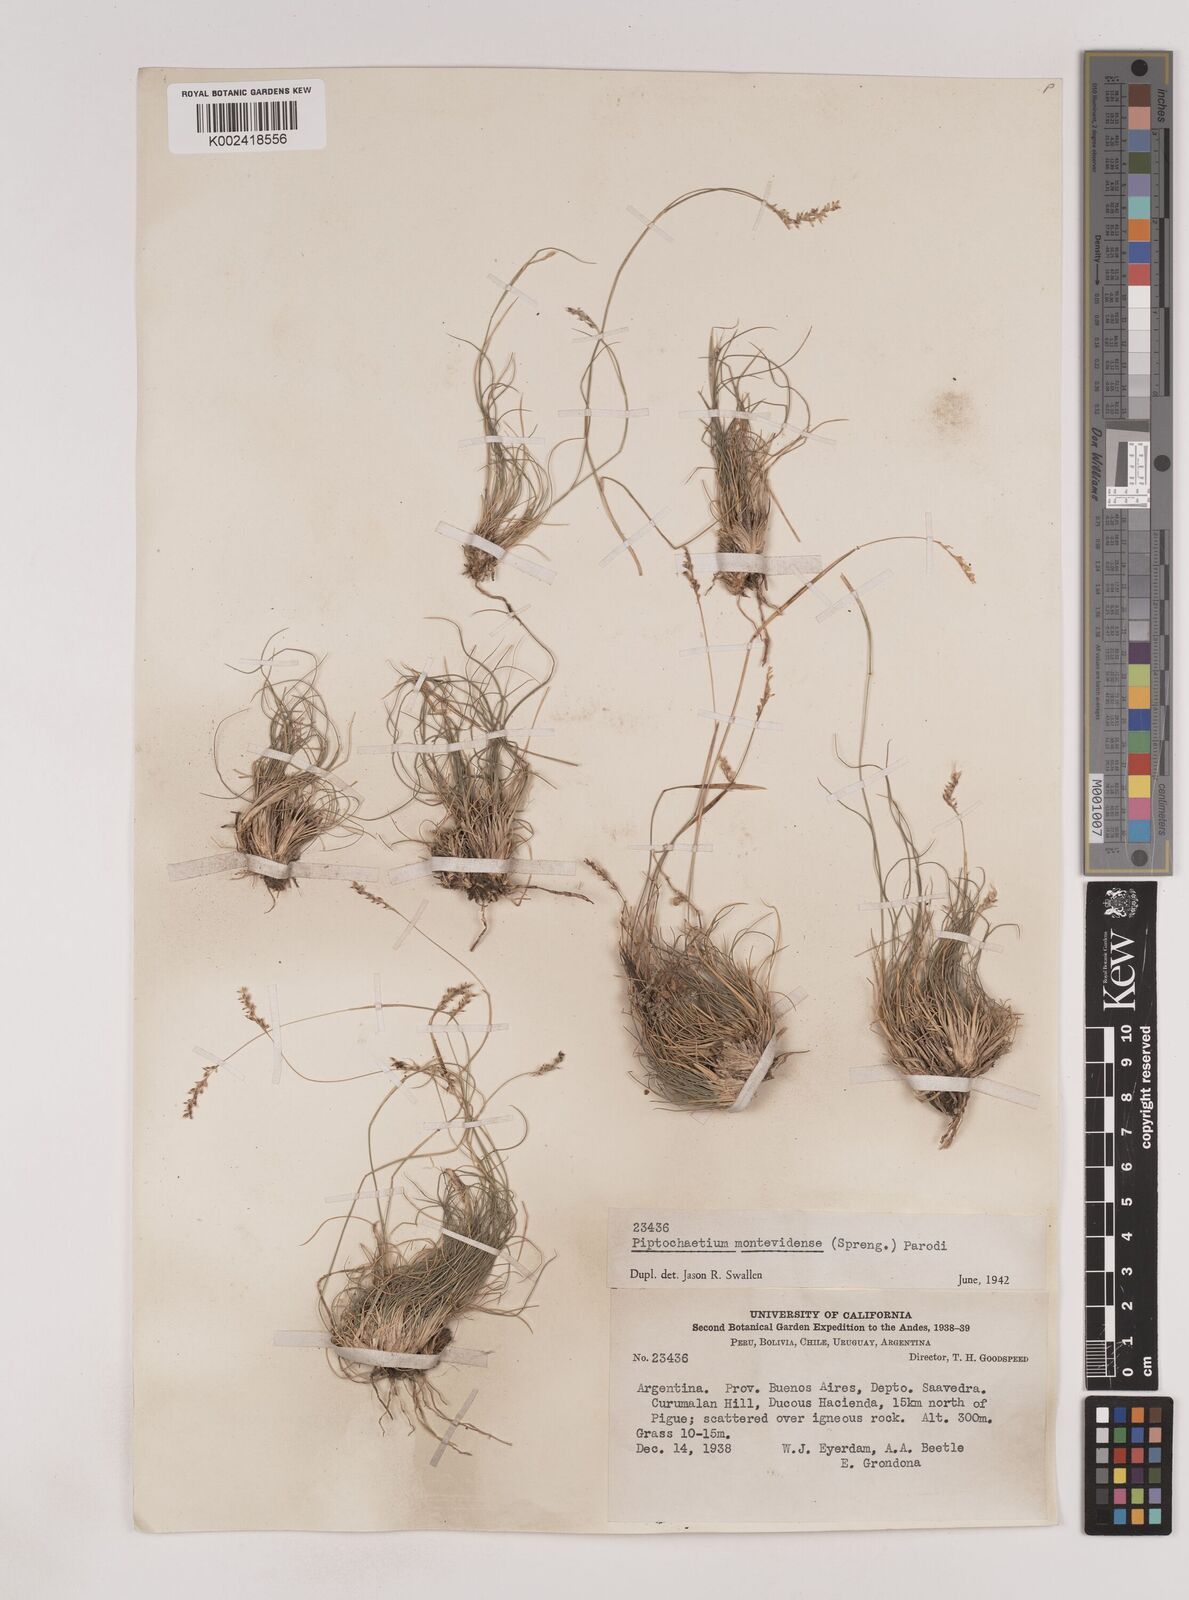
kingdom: Plantae
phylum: Tracheophyta
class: Liliopsida
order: Poales
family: Poaceae
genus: Piptochaetium
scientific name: Piptochaetium montevidense
